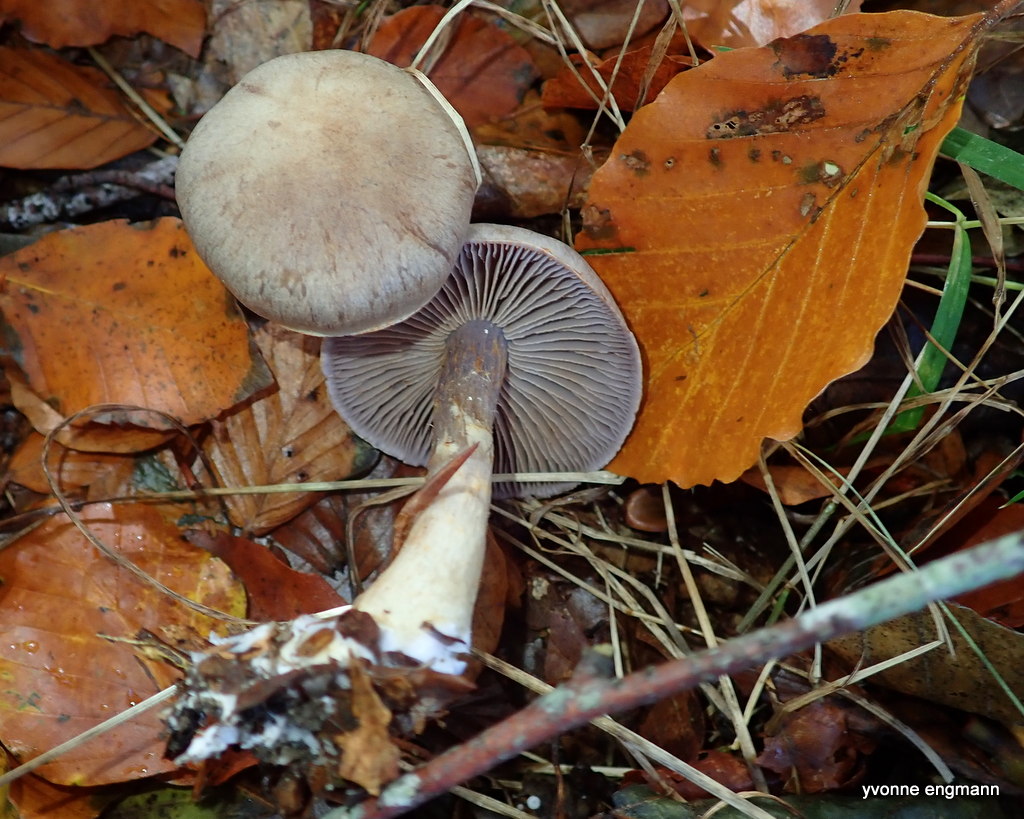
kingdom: Fungi
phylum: Basidiomycota
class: Agaricomycetes
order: Agaricales
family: Cortinariaceae
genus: Cortinarius
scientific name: Cortinarius
